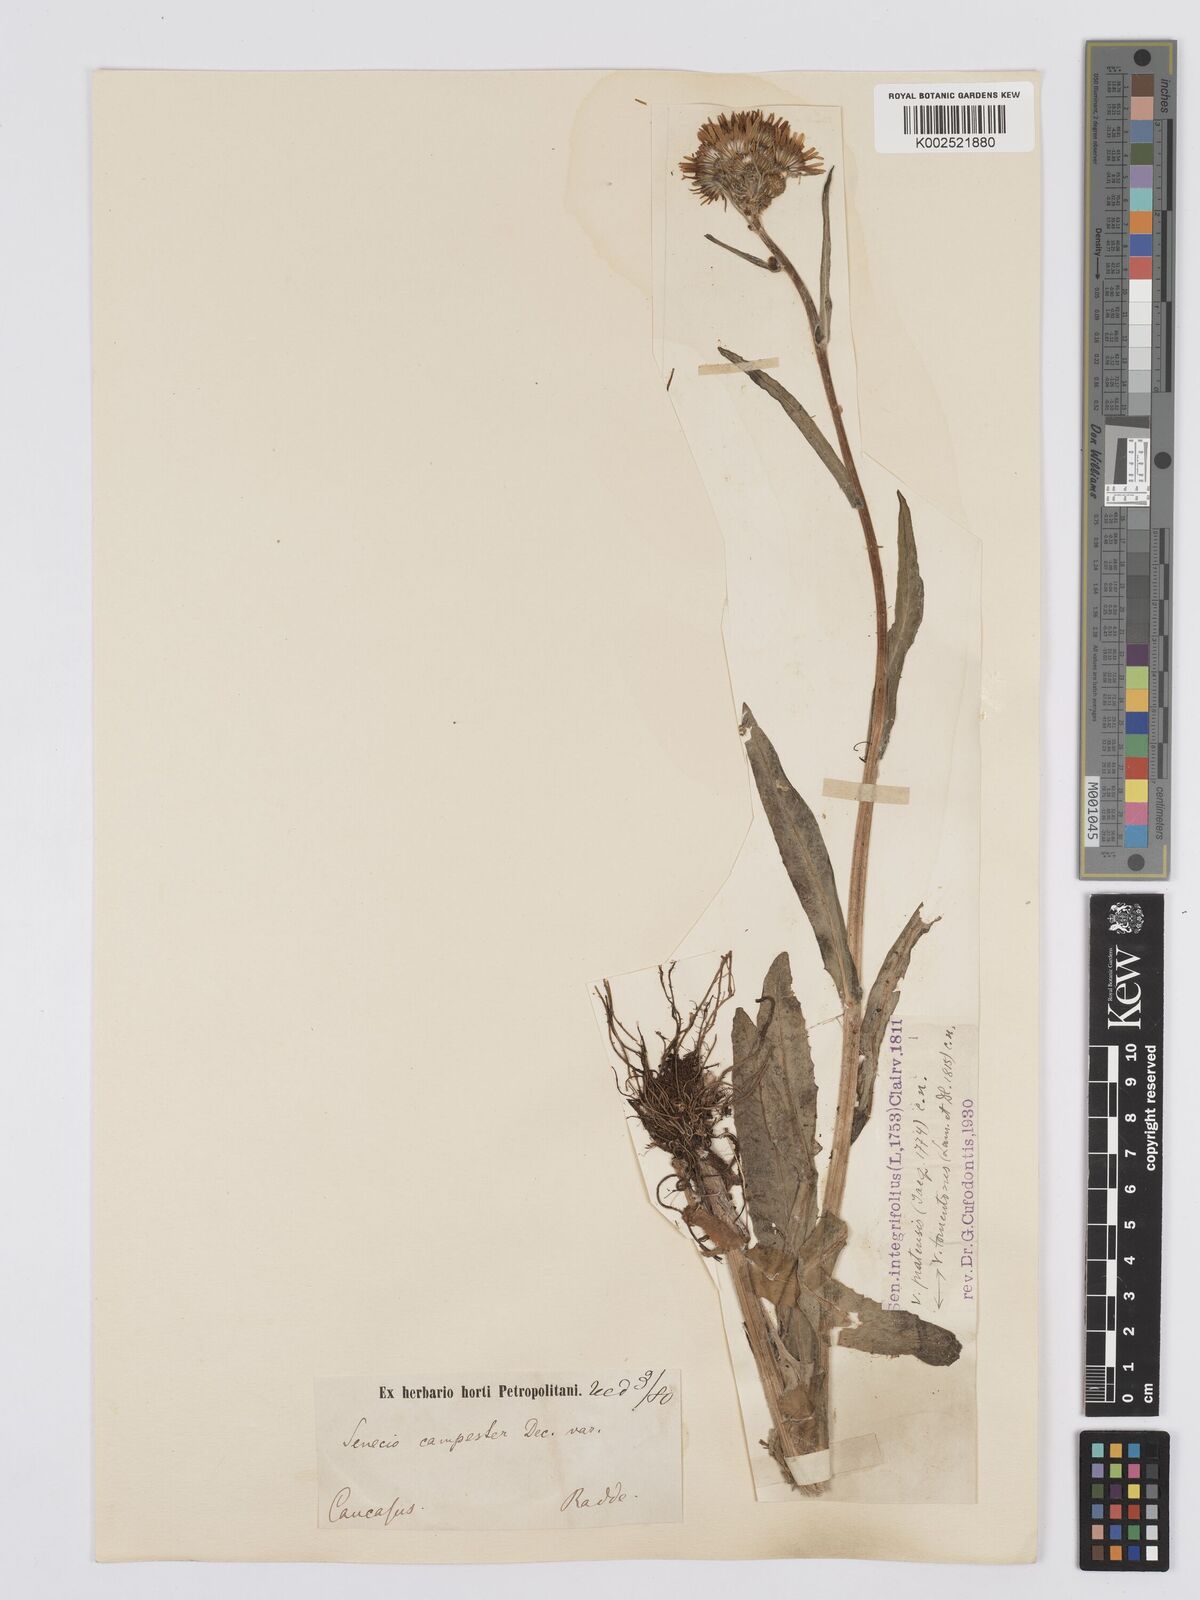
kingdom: Plantae
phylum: Tracheophyta
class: Magnoliopsida
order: Asterales
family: Asteraceae
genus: Tephroseris
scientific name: Tephroseris cladobotrys
